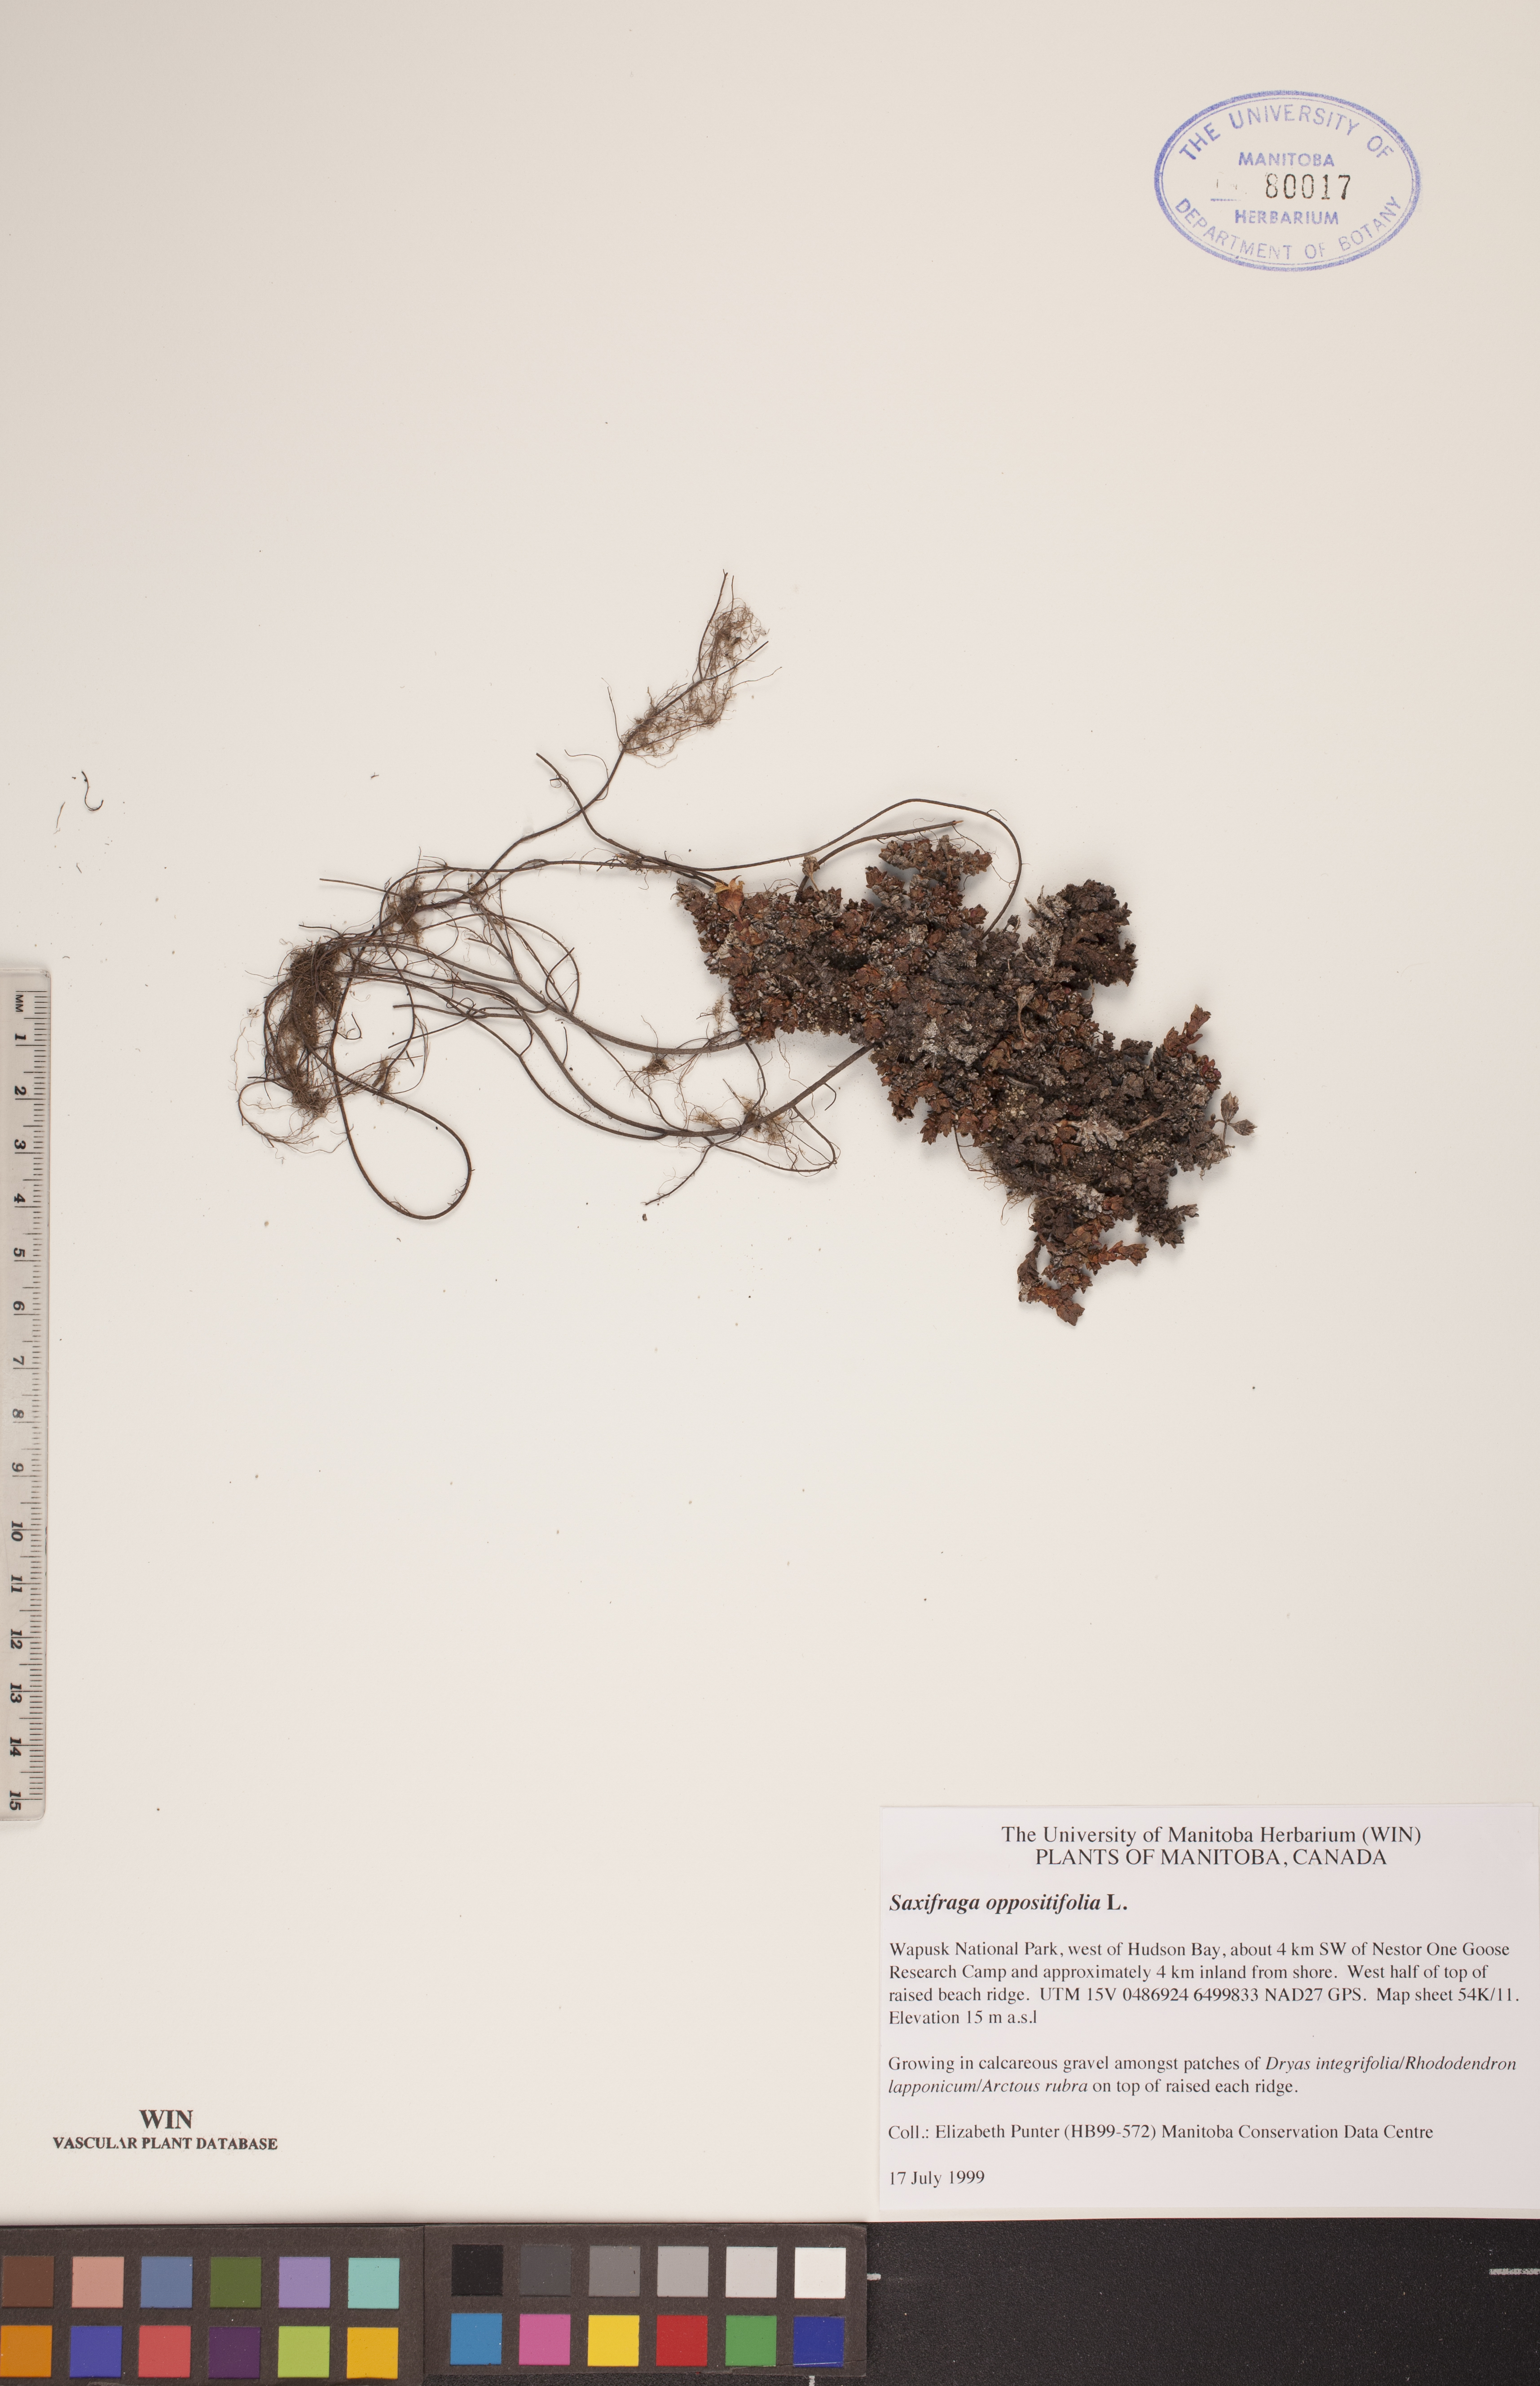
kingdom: Plantae
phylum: Tracheophyta
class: Magnoliopsida
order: Saxifragales
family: Saxifragaceae
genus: Saxifraga
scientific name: Saxifraga oppositifolia
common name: Purple saxifrage
